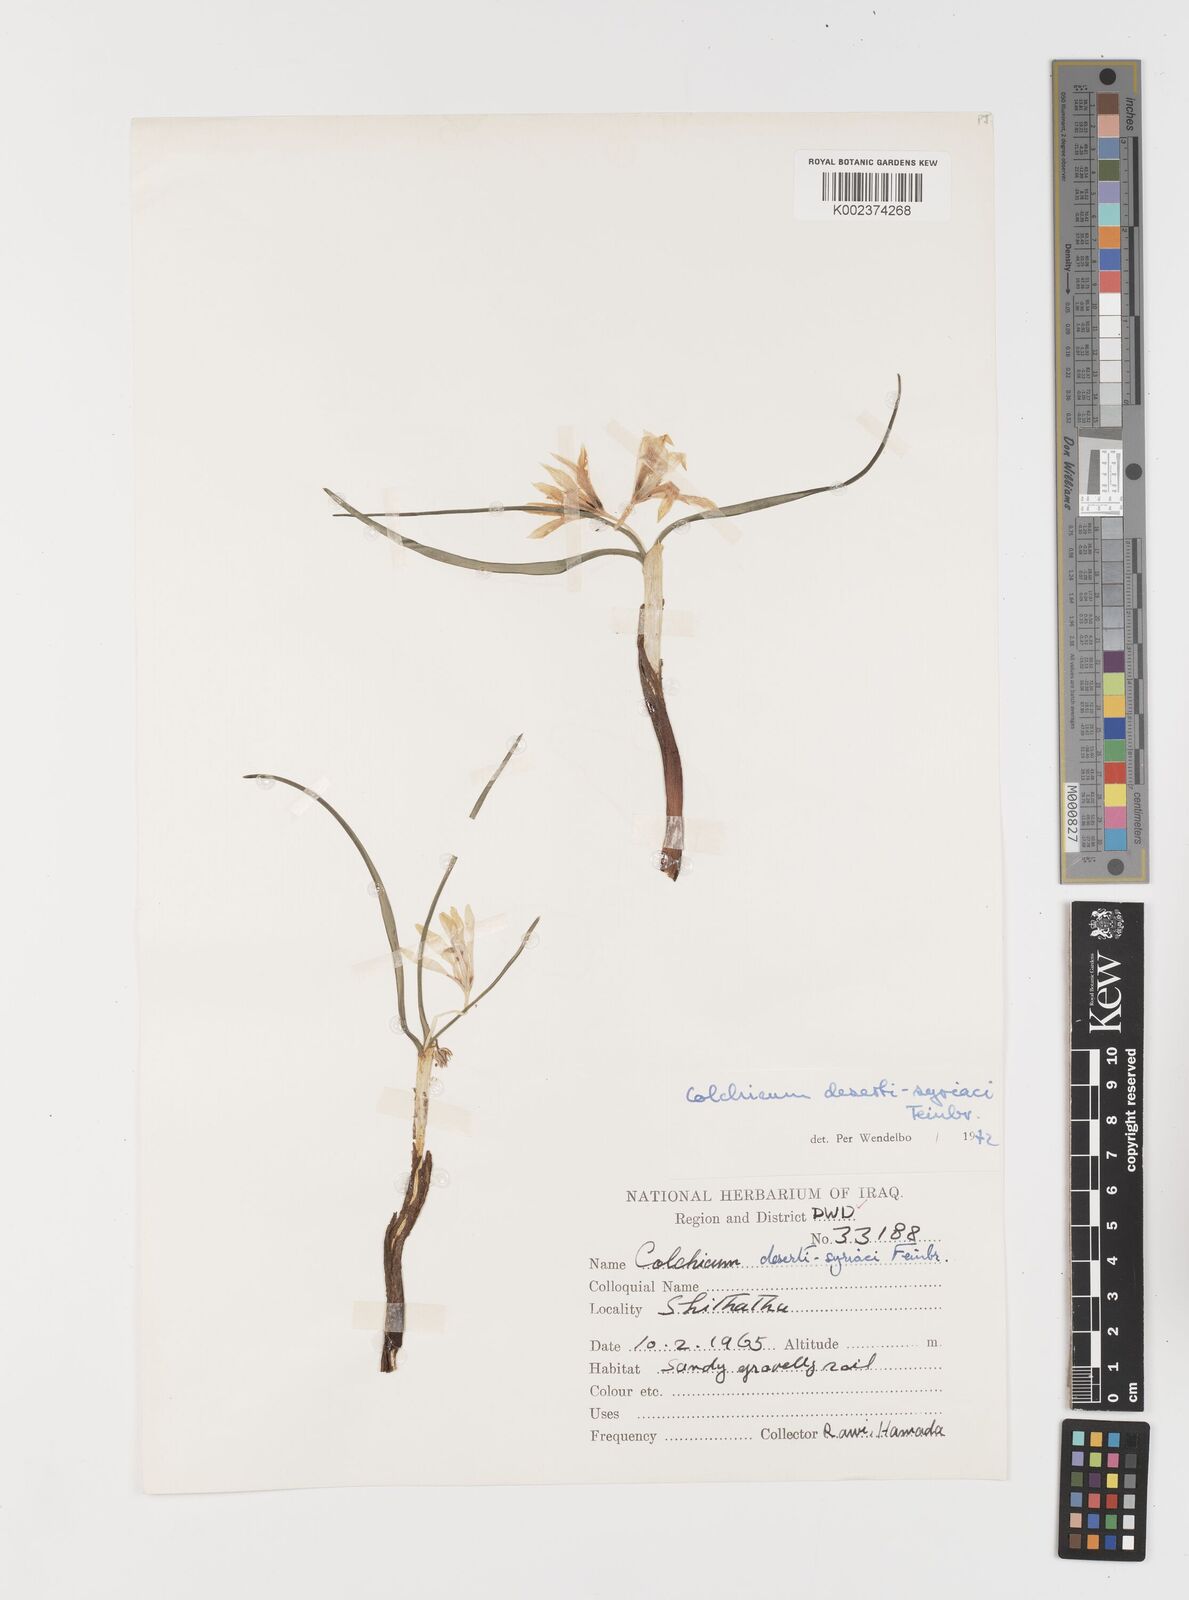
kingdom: Plantae
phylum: Tracheophyta
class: Liliopsida
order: Liliales
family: Colchicaceae
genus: Colchicum
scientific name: Colchicum schimperi
